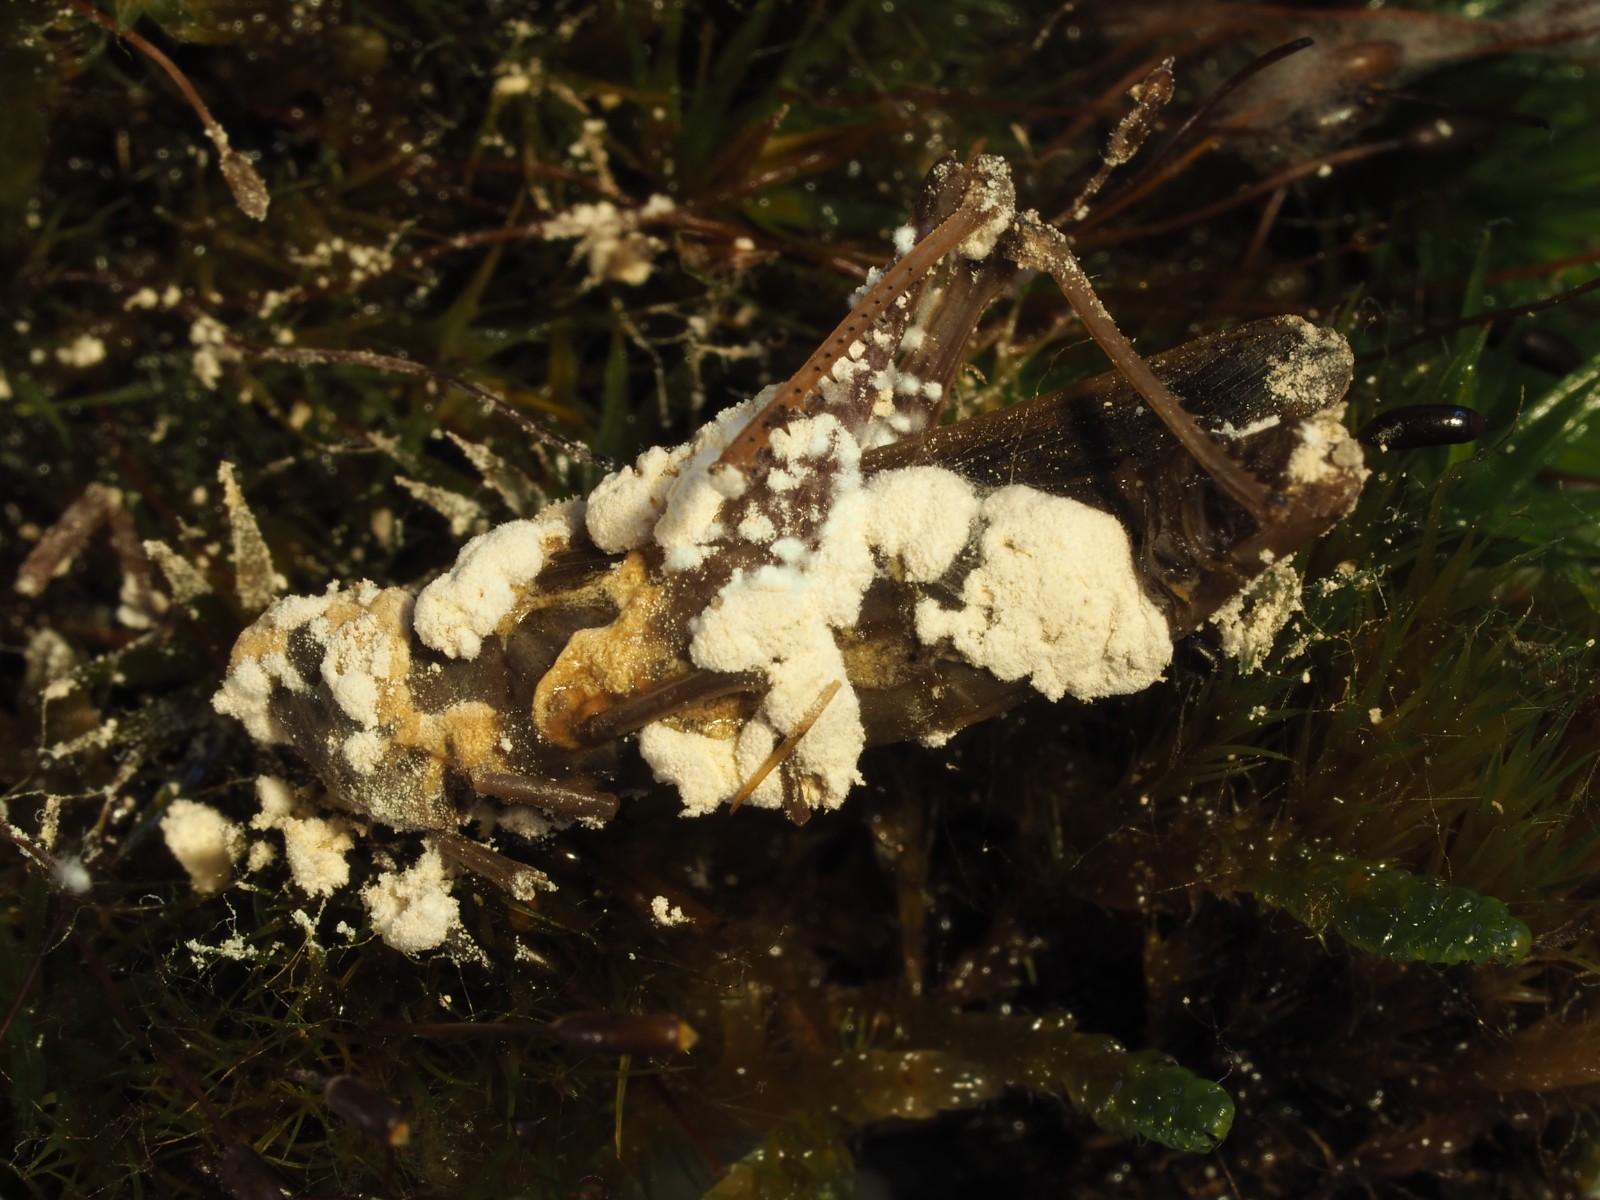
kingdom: Fungi
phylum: Ascomycota
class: Sordariomycetes
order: Hypocreales
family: Cordycipitaceae
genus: Beauveria
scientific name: Beauveria bassiana
